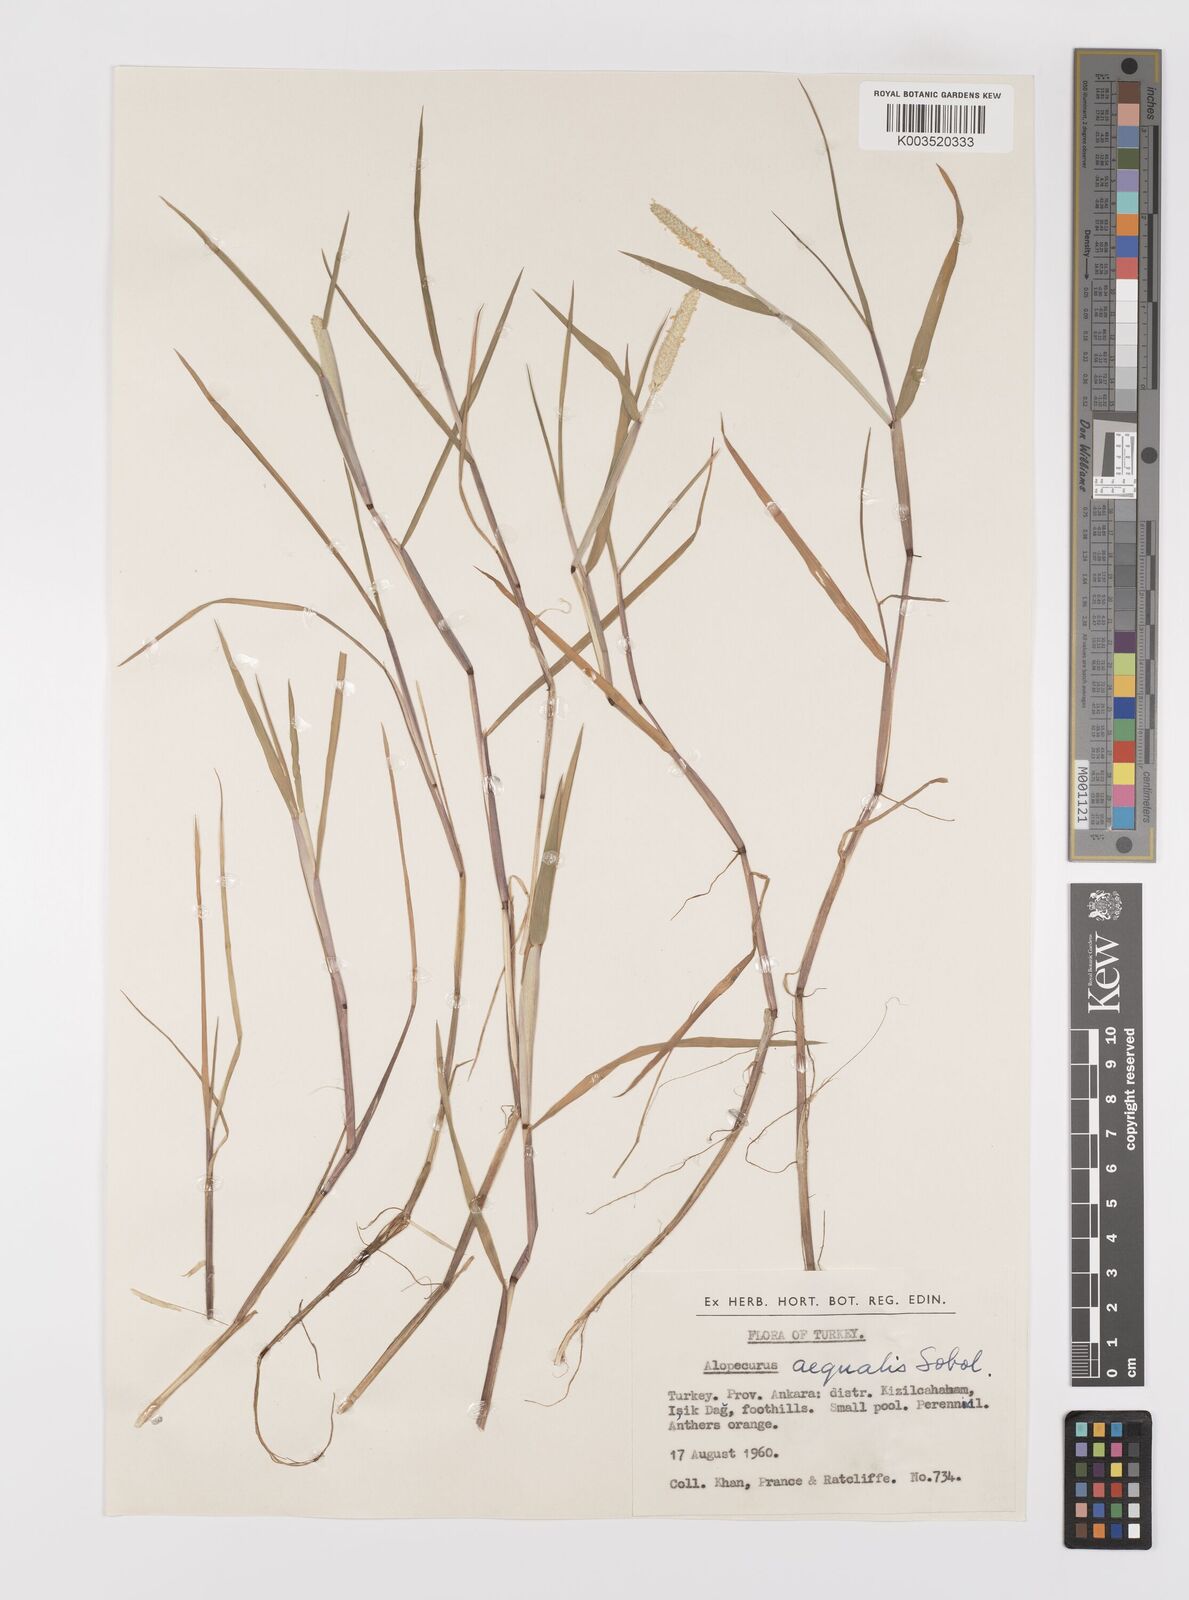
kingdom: Plantae
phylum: Tracheophyta
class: Liliopsida
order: Poales
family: Poaceae
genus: Alopecurus
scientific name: Alopecurus aequalis
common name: Orange foxtail
